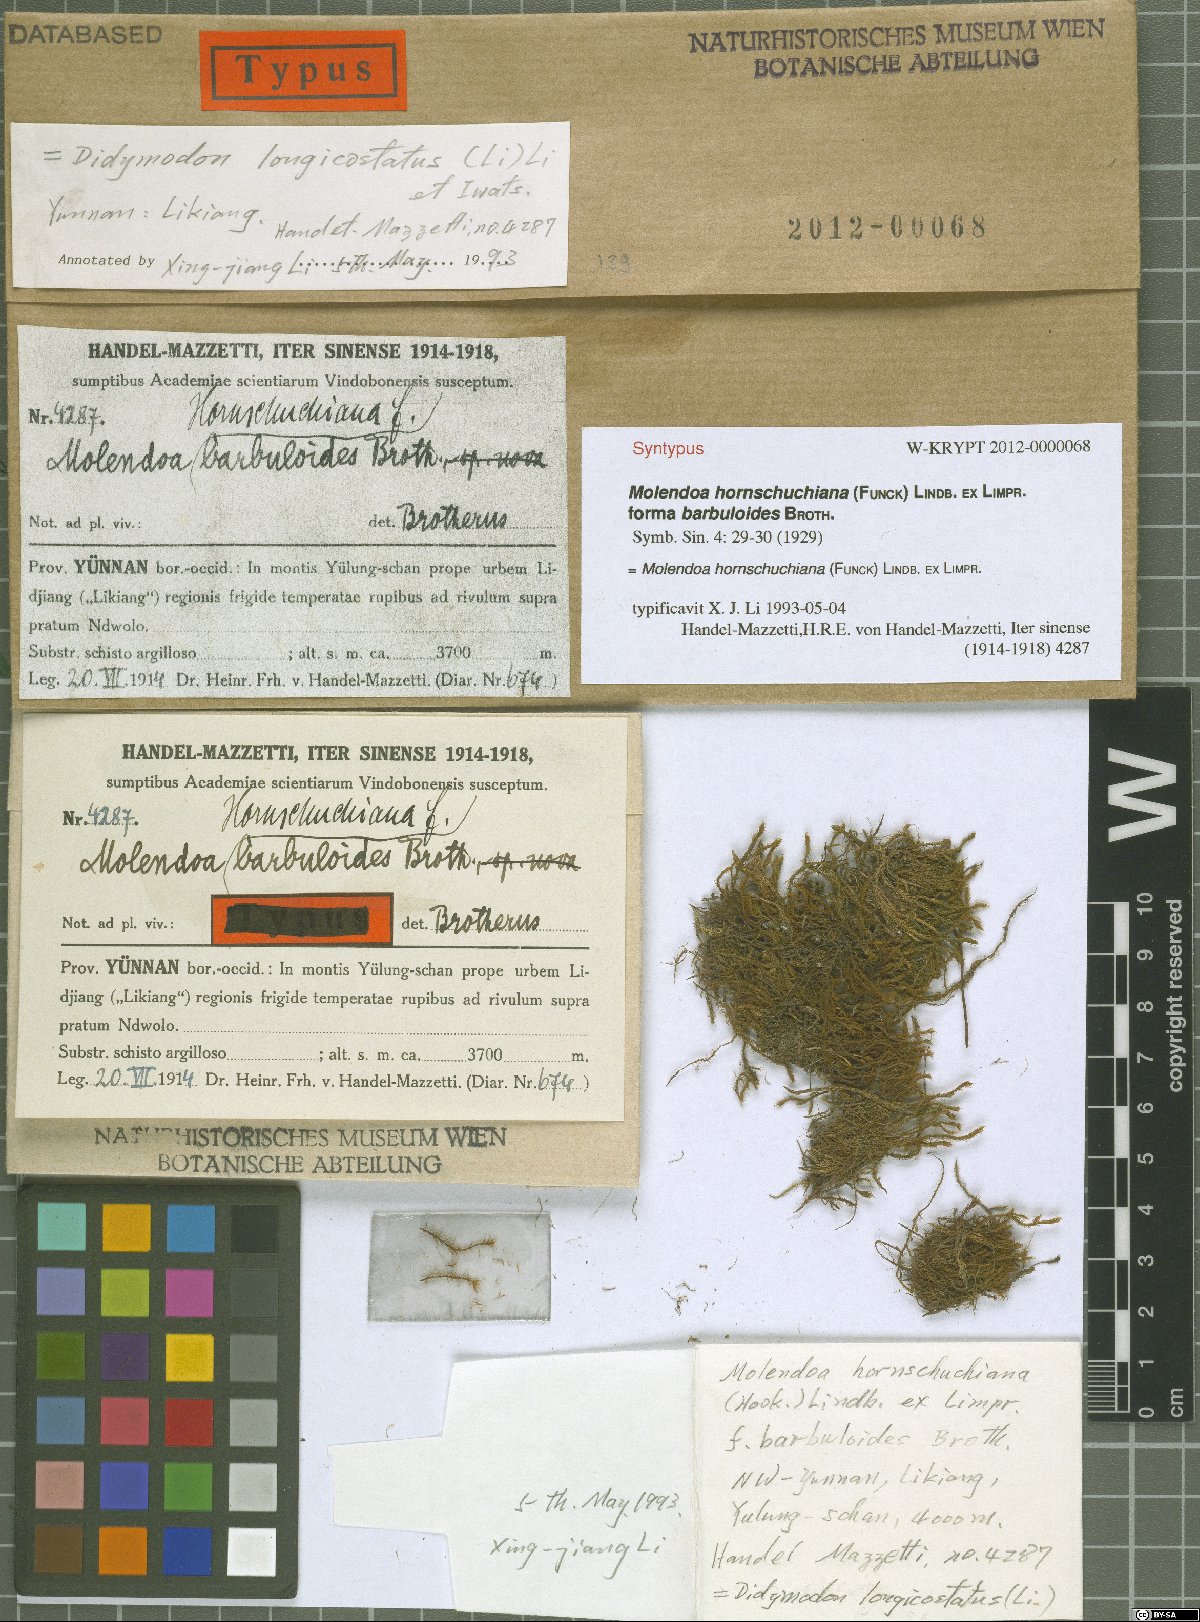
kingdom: Plantae
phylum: Bryophyta
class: Bryopsida
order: Pottiales
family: Pottiaceae
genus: Molendoa
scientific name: Molendoa hornschuchiana
